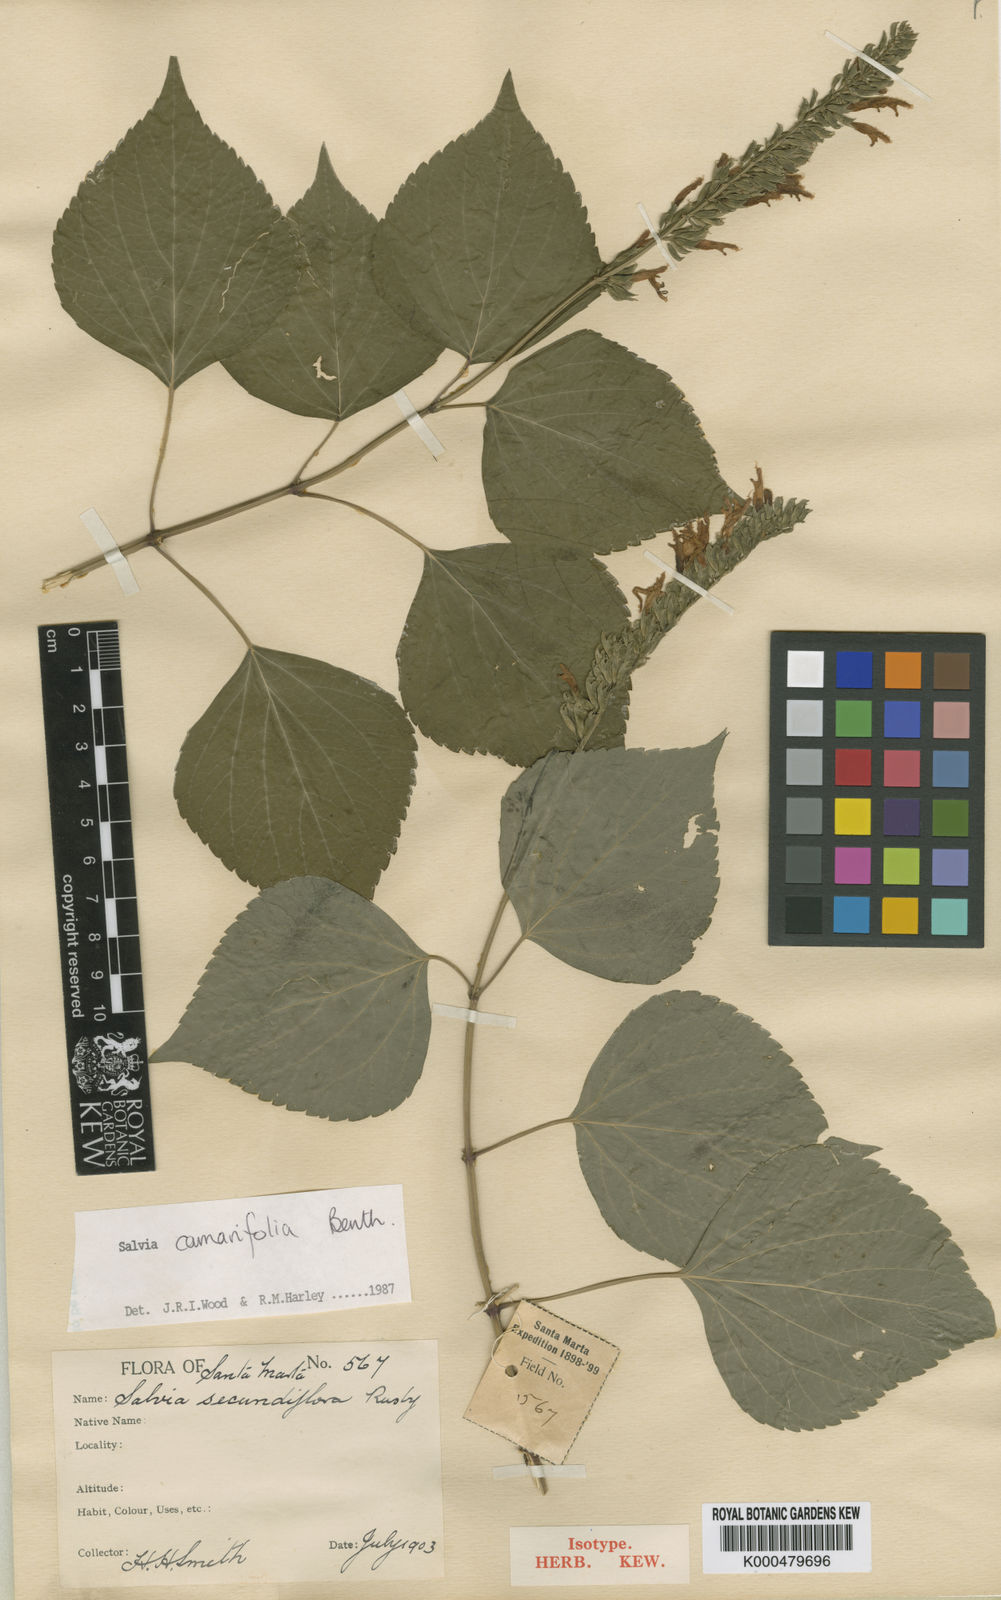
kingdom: Plantae
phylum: Tracheophyta
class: Magnoliopsida
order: Lamiales
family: Lamiaceae
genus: Salvia
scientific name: Salvia camarifolia
